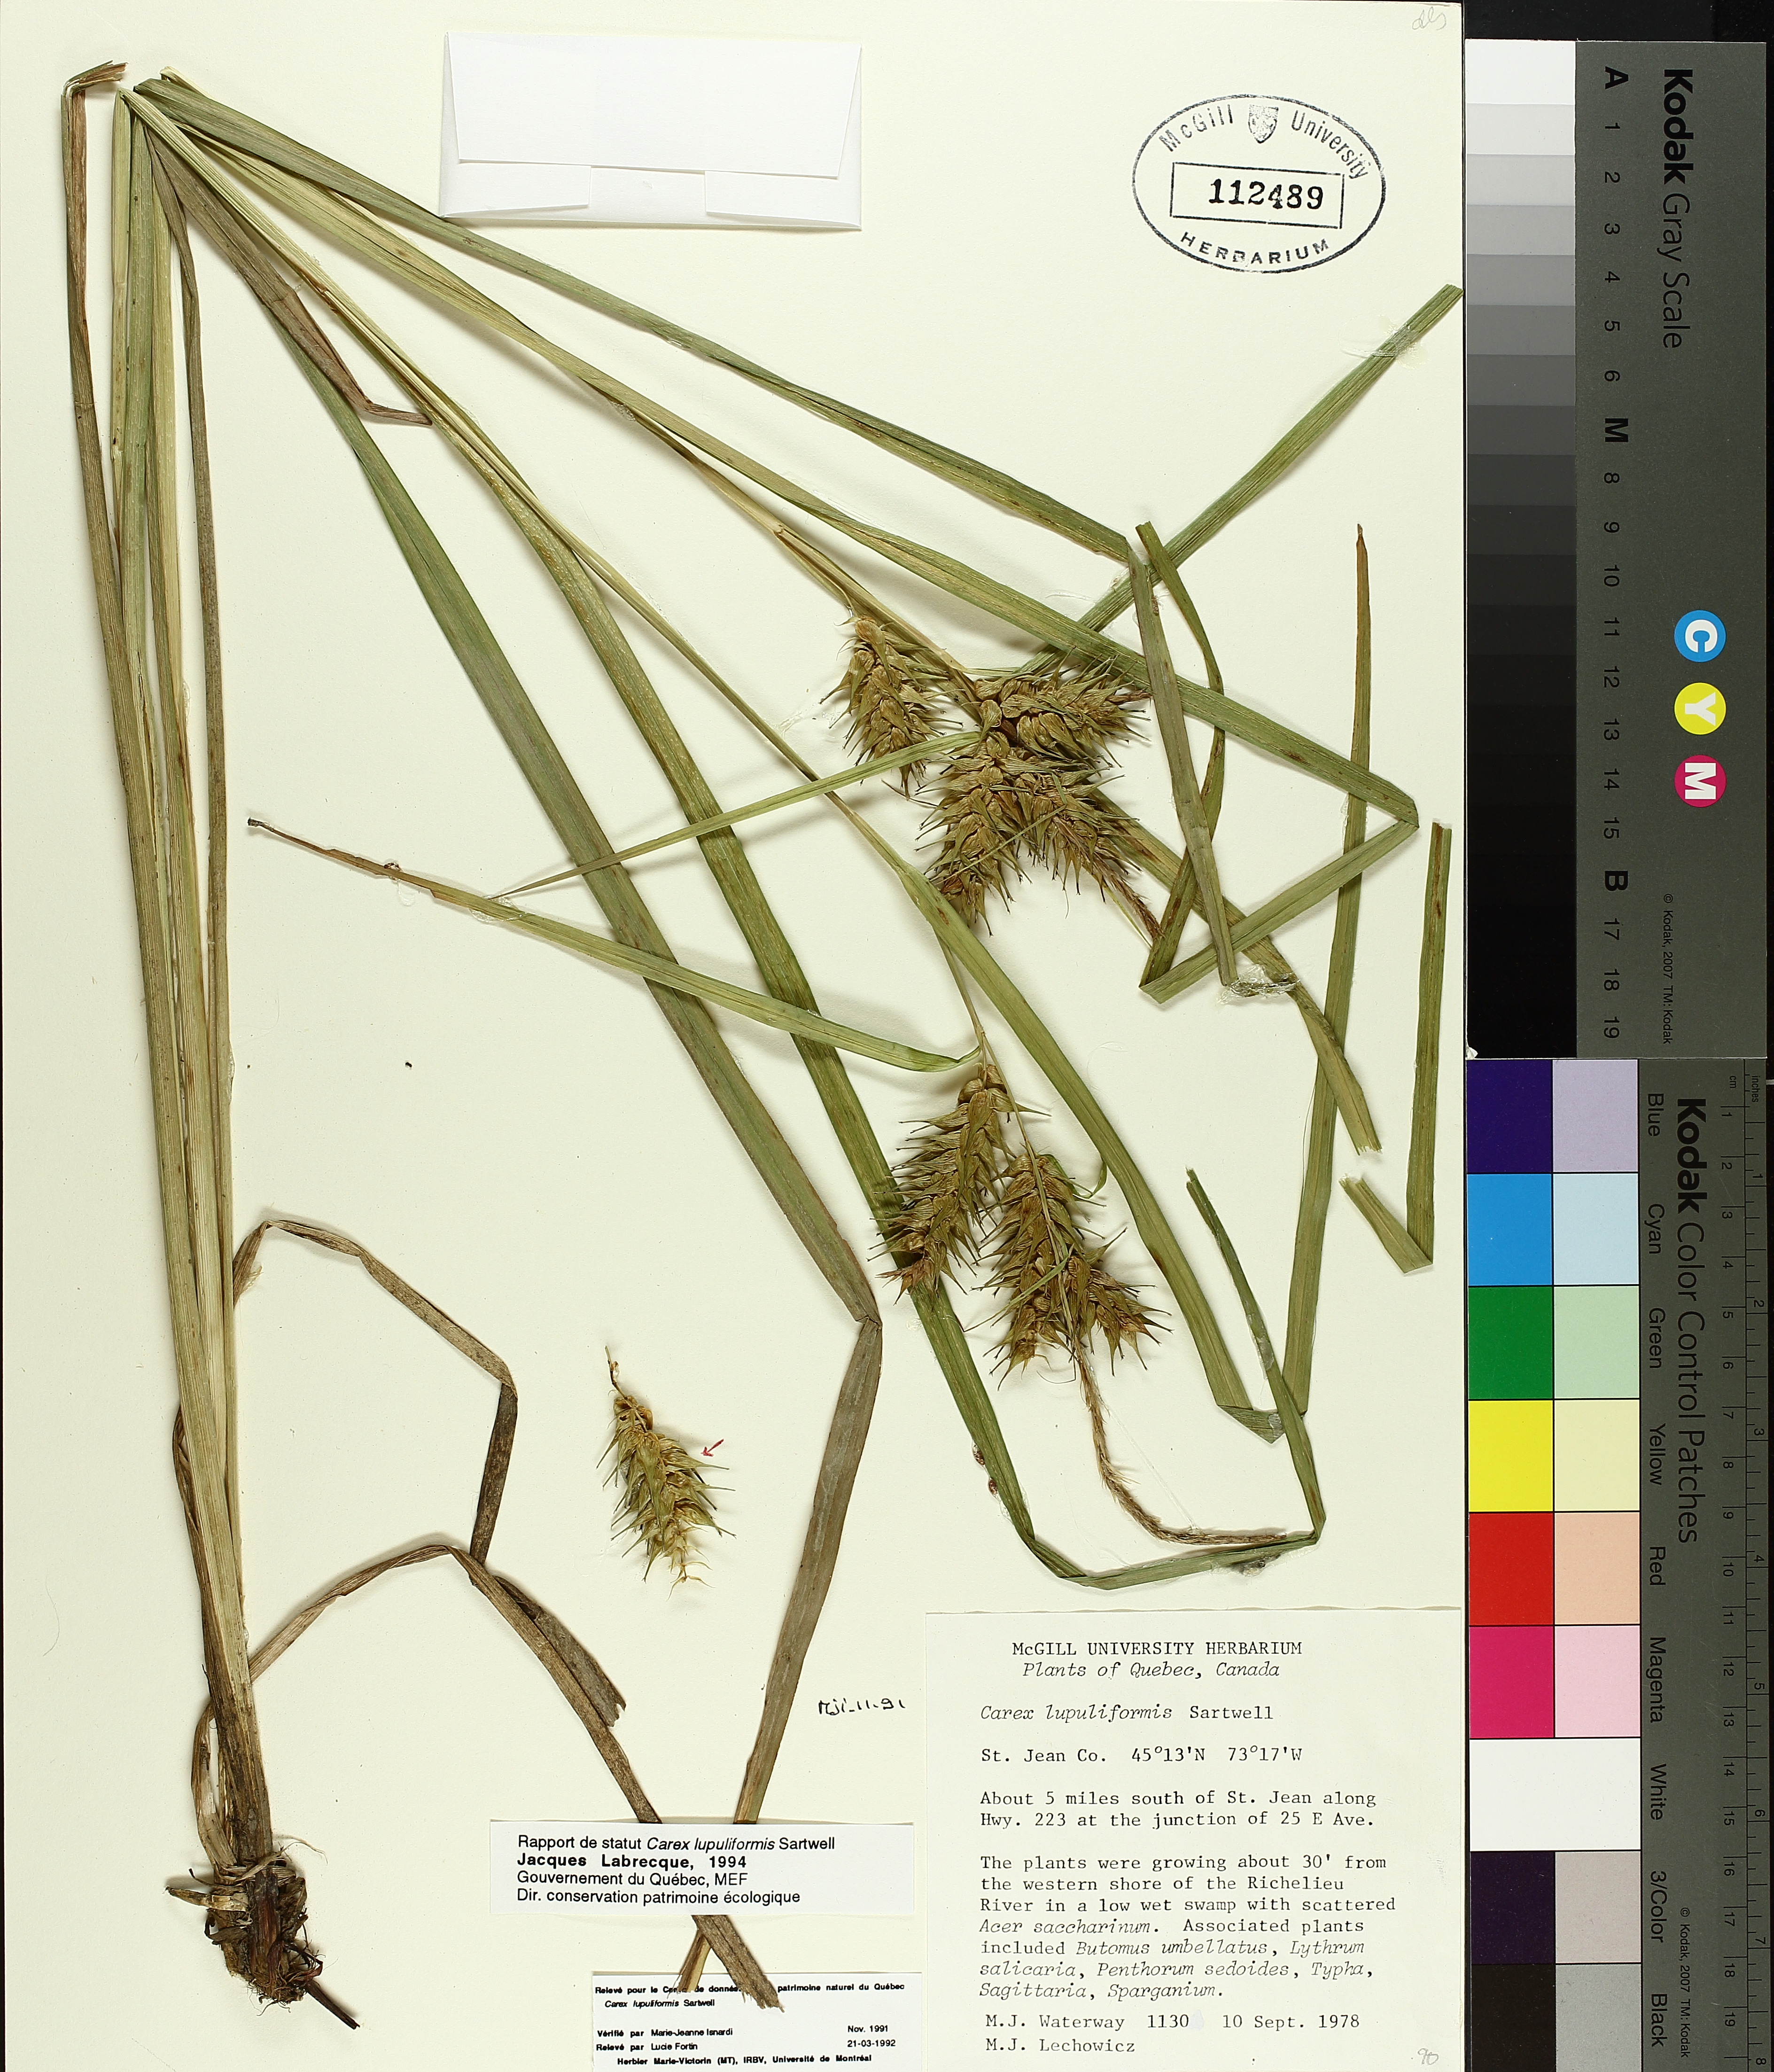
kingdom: Plantae
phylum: Tracheophyta
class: Liliopsida
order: Poales
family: Cyperaceae
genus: Carex
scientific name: Carex lupuliformis
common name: False hop sedge
